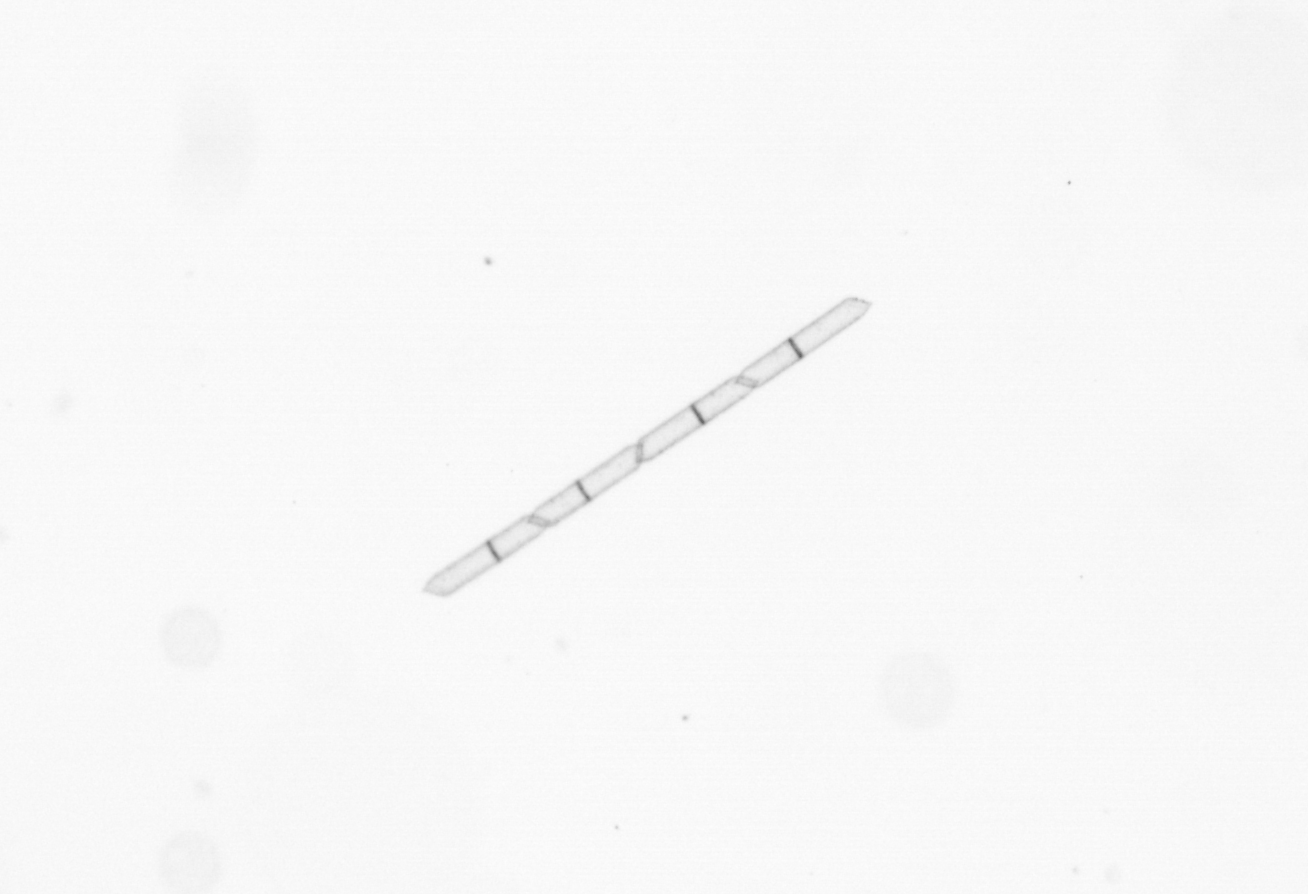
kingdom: Chromista
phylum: Ochrophyta
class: Bacillariophyceae
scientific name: Bacillariophyceae
